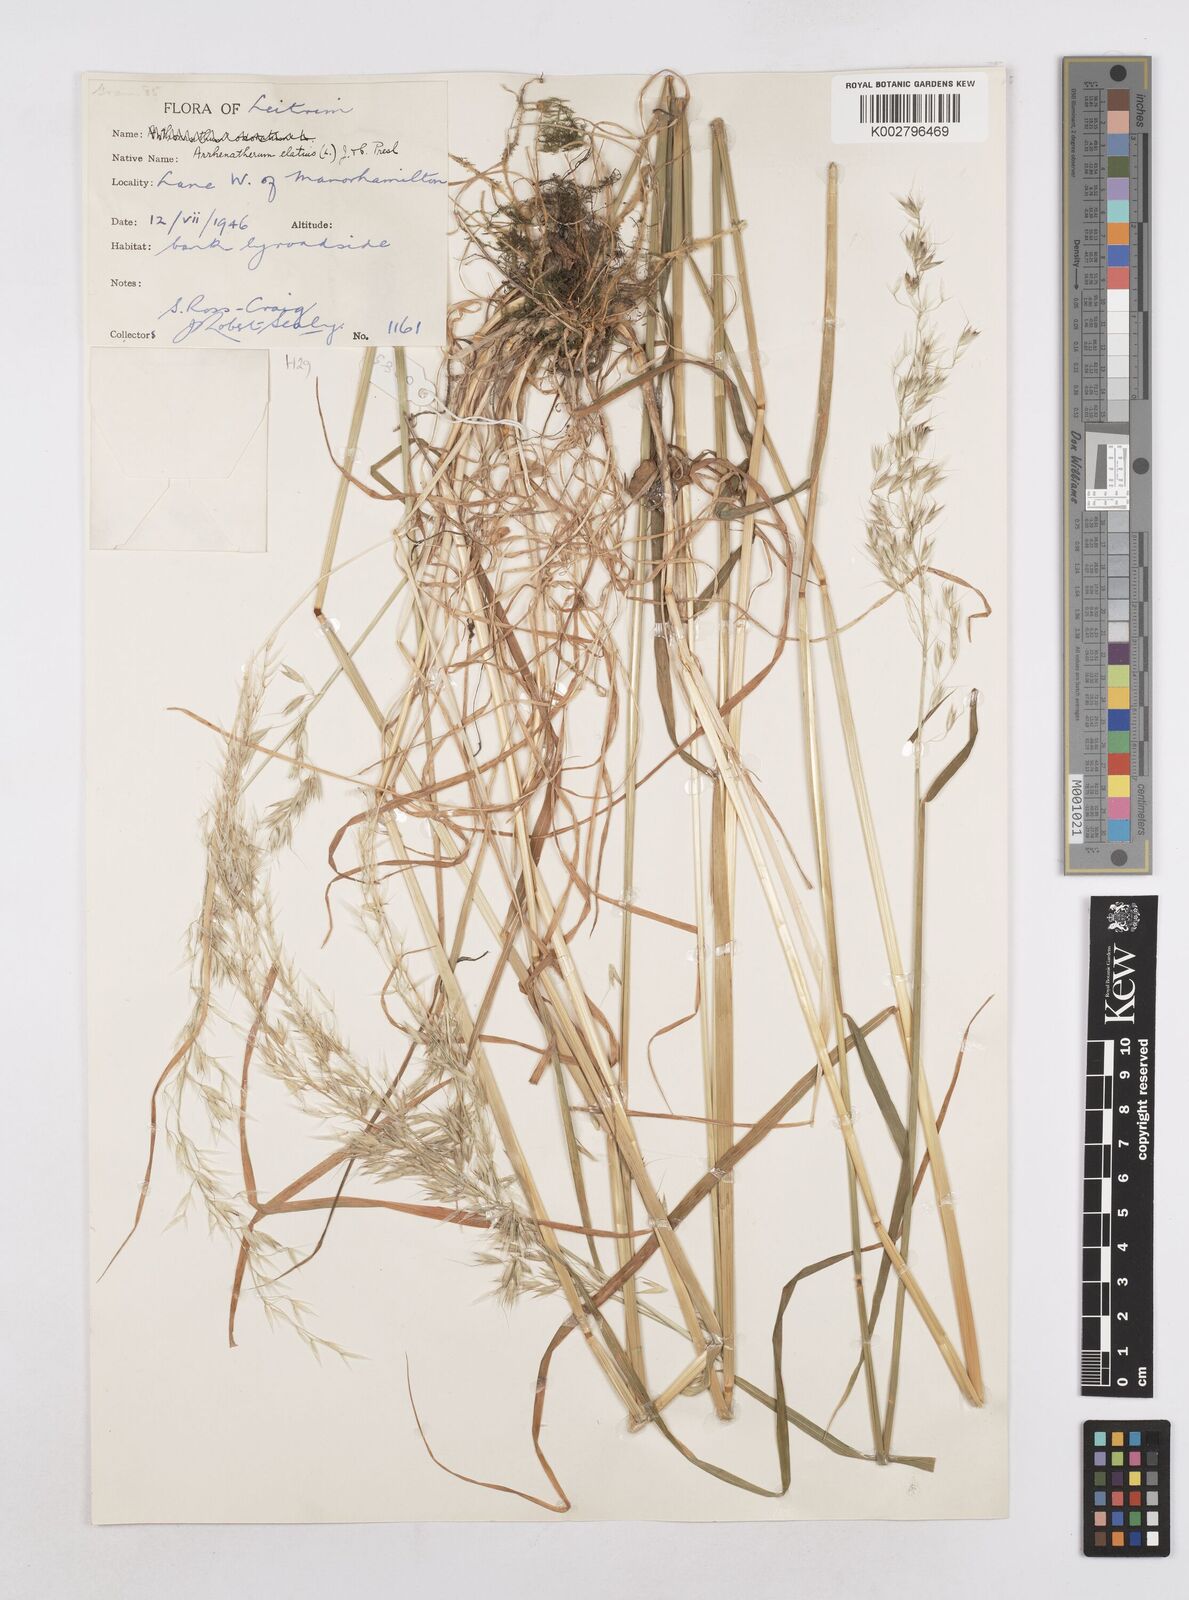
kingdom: Plantae
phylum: Tracheophyta
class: Liliopsida
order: Poales
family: Poaceae
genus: Arrhenatherum
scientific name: Arrhenatherum elatius
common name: Tall oatgrass
